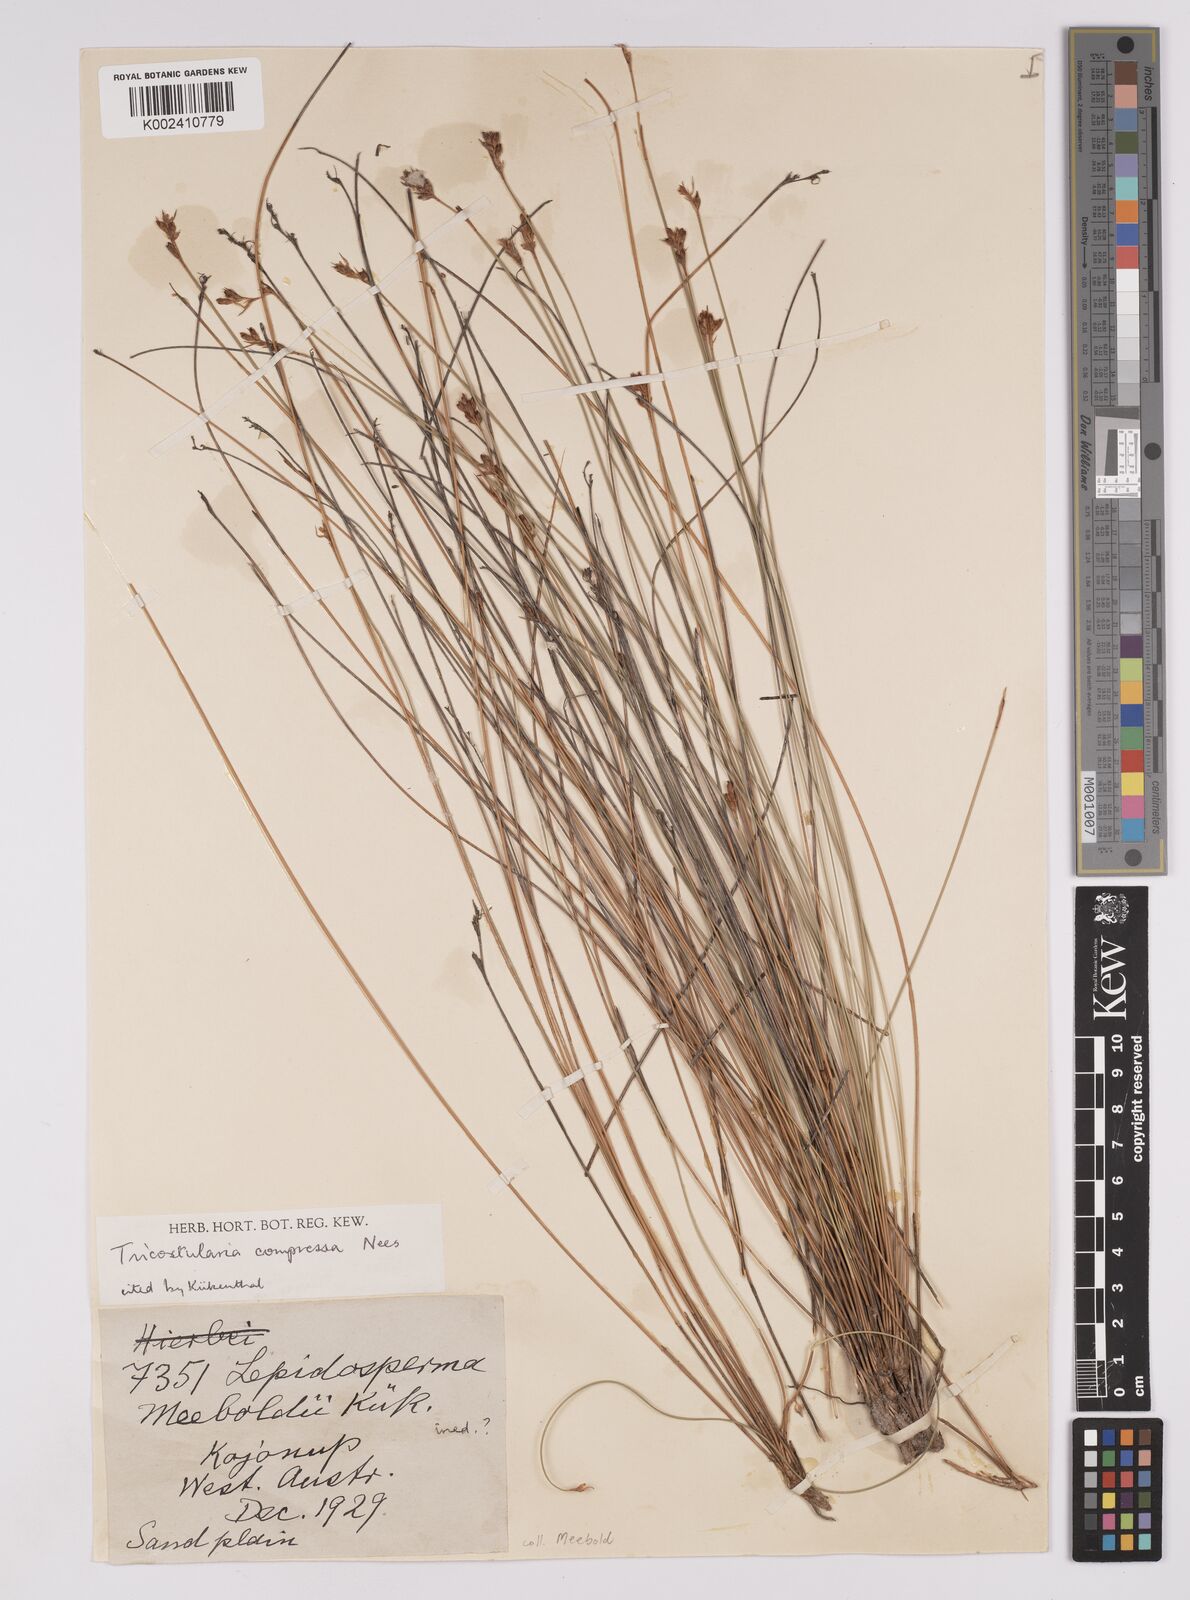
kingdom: Plantae
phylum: Tracheophyta
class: Liliopsida
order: Poales
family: Cyperaceae
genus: Tricostularia
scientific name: Tricostularia compressa
